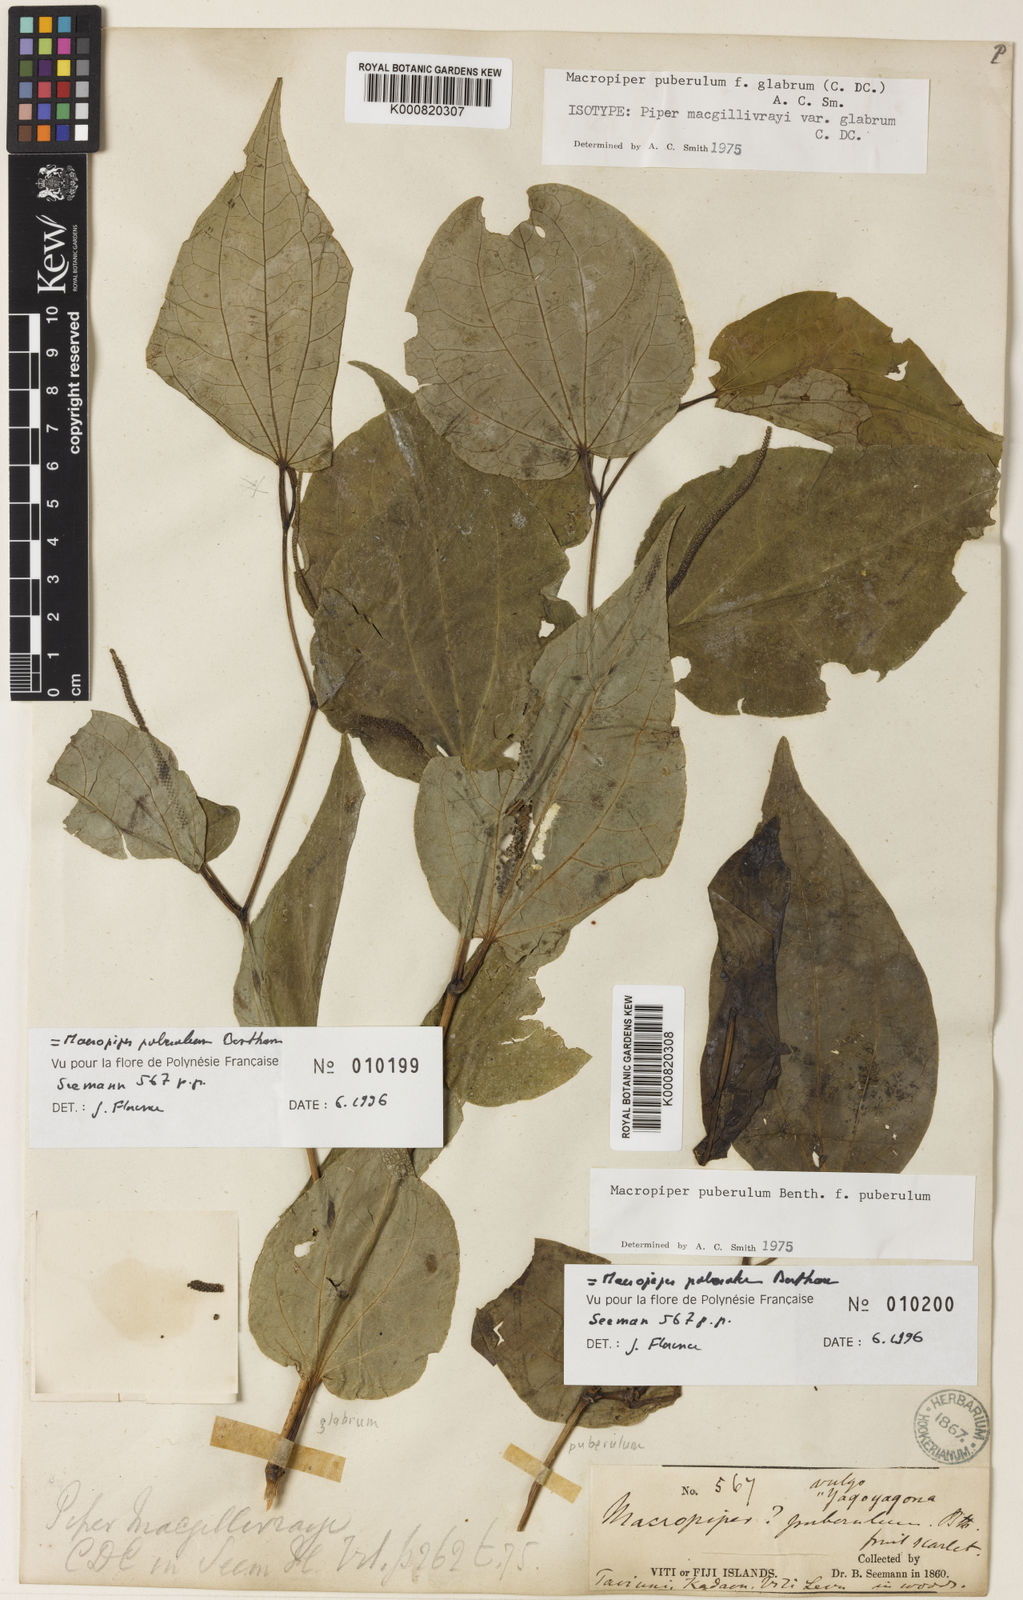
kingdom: Plantae
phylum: Tracheophyta
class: Magnoliopsida
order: Piperales
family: Piperaceae
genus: Macropiper
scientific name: Macropiper puberulum
